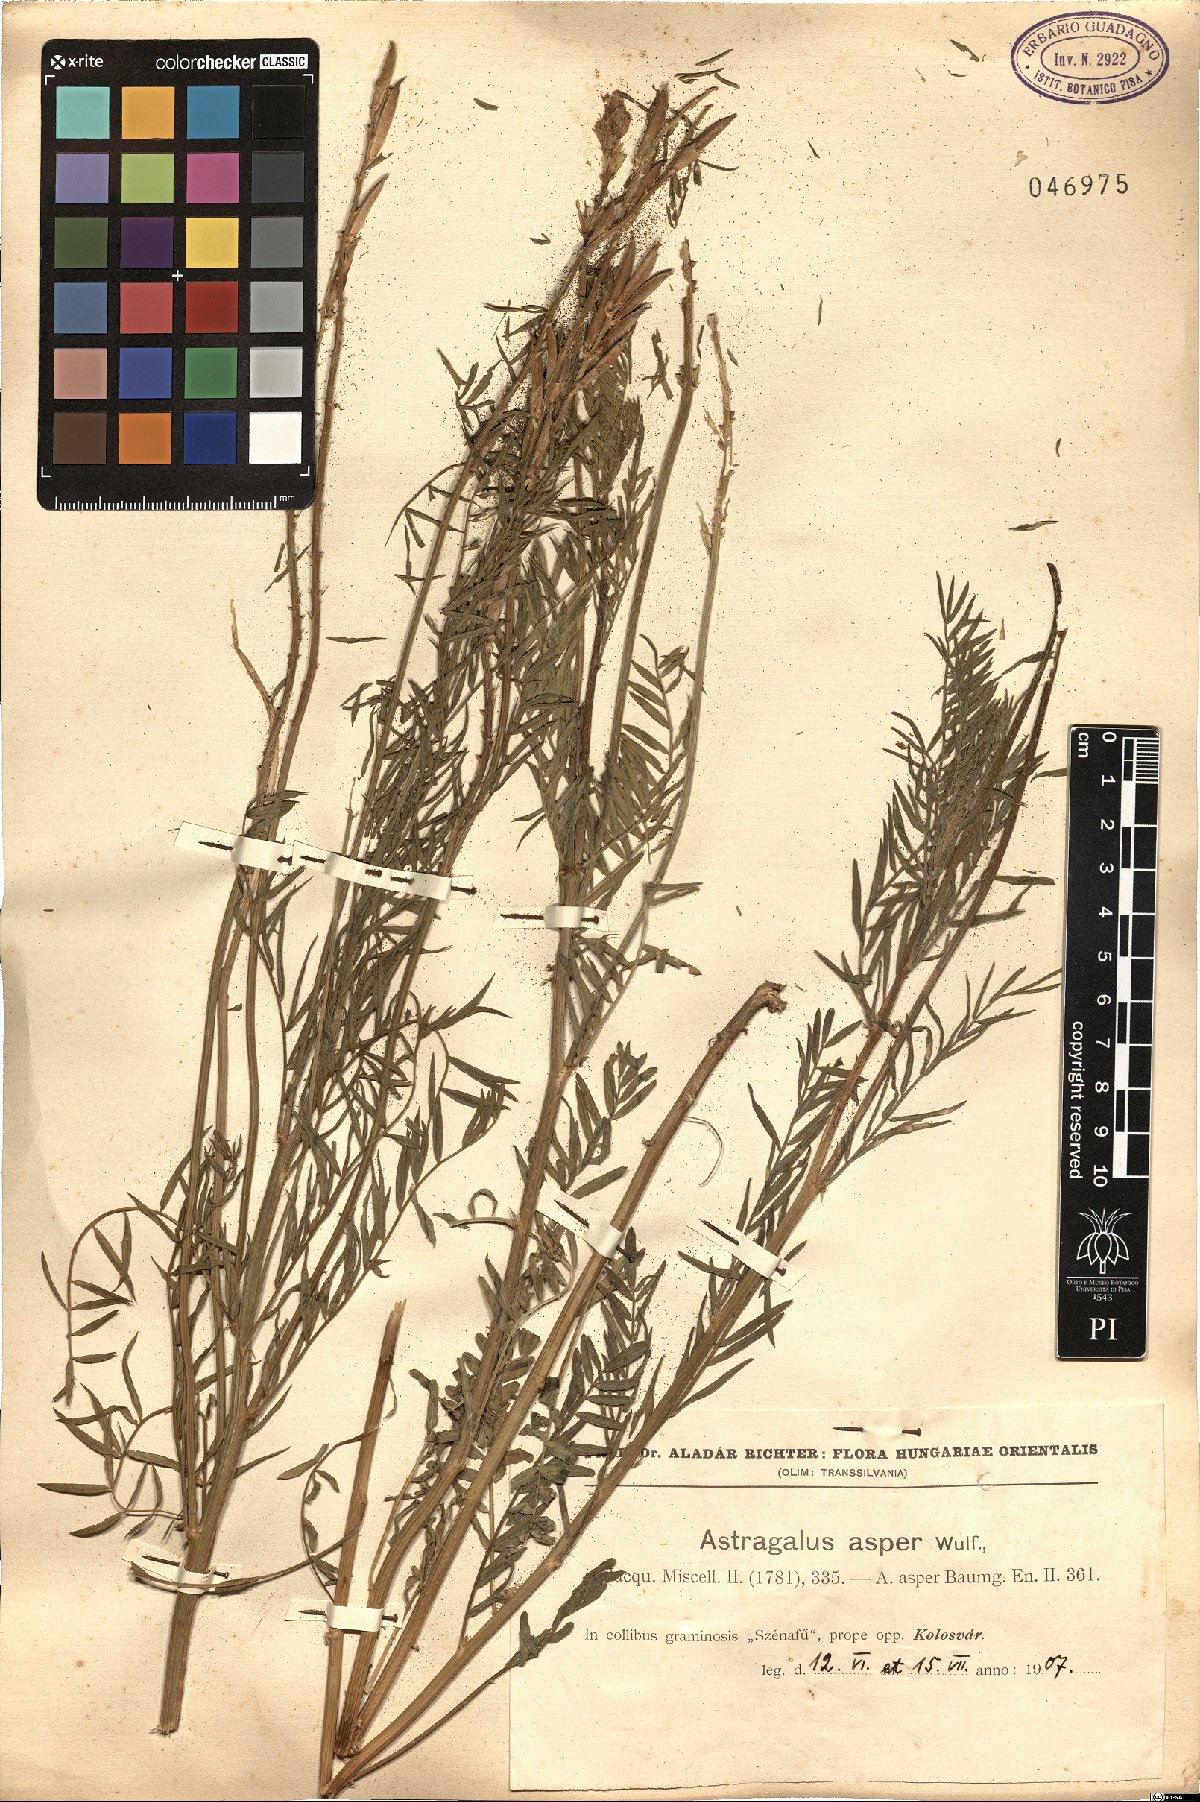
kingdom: Plantae
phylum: Tracheophyta
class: Magnoliopsida
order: Fabales
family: Fabaceae
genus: Astragalus
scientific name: Astragalus asper
